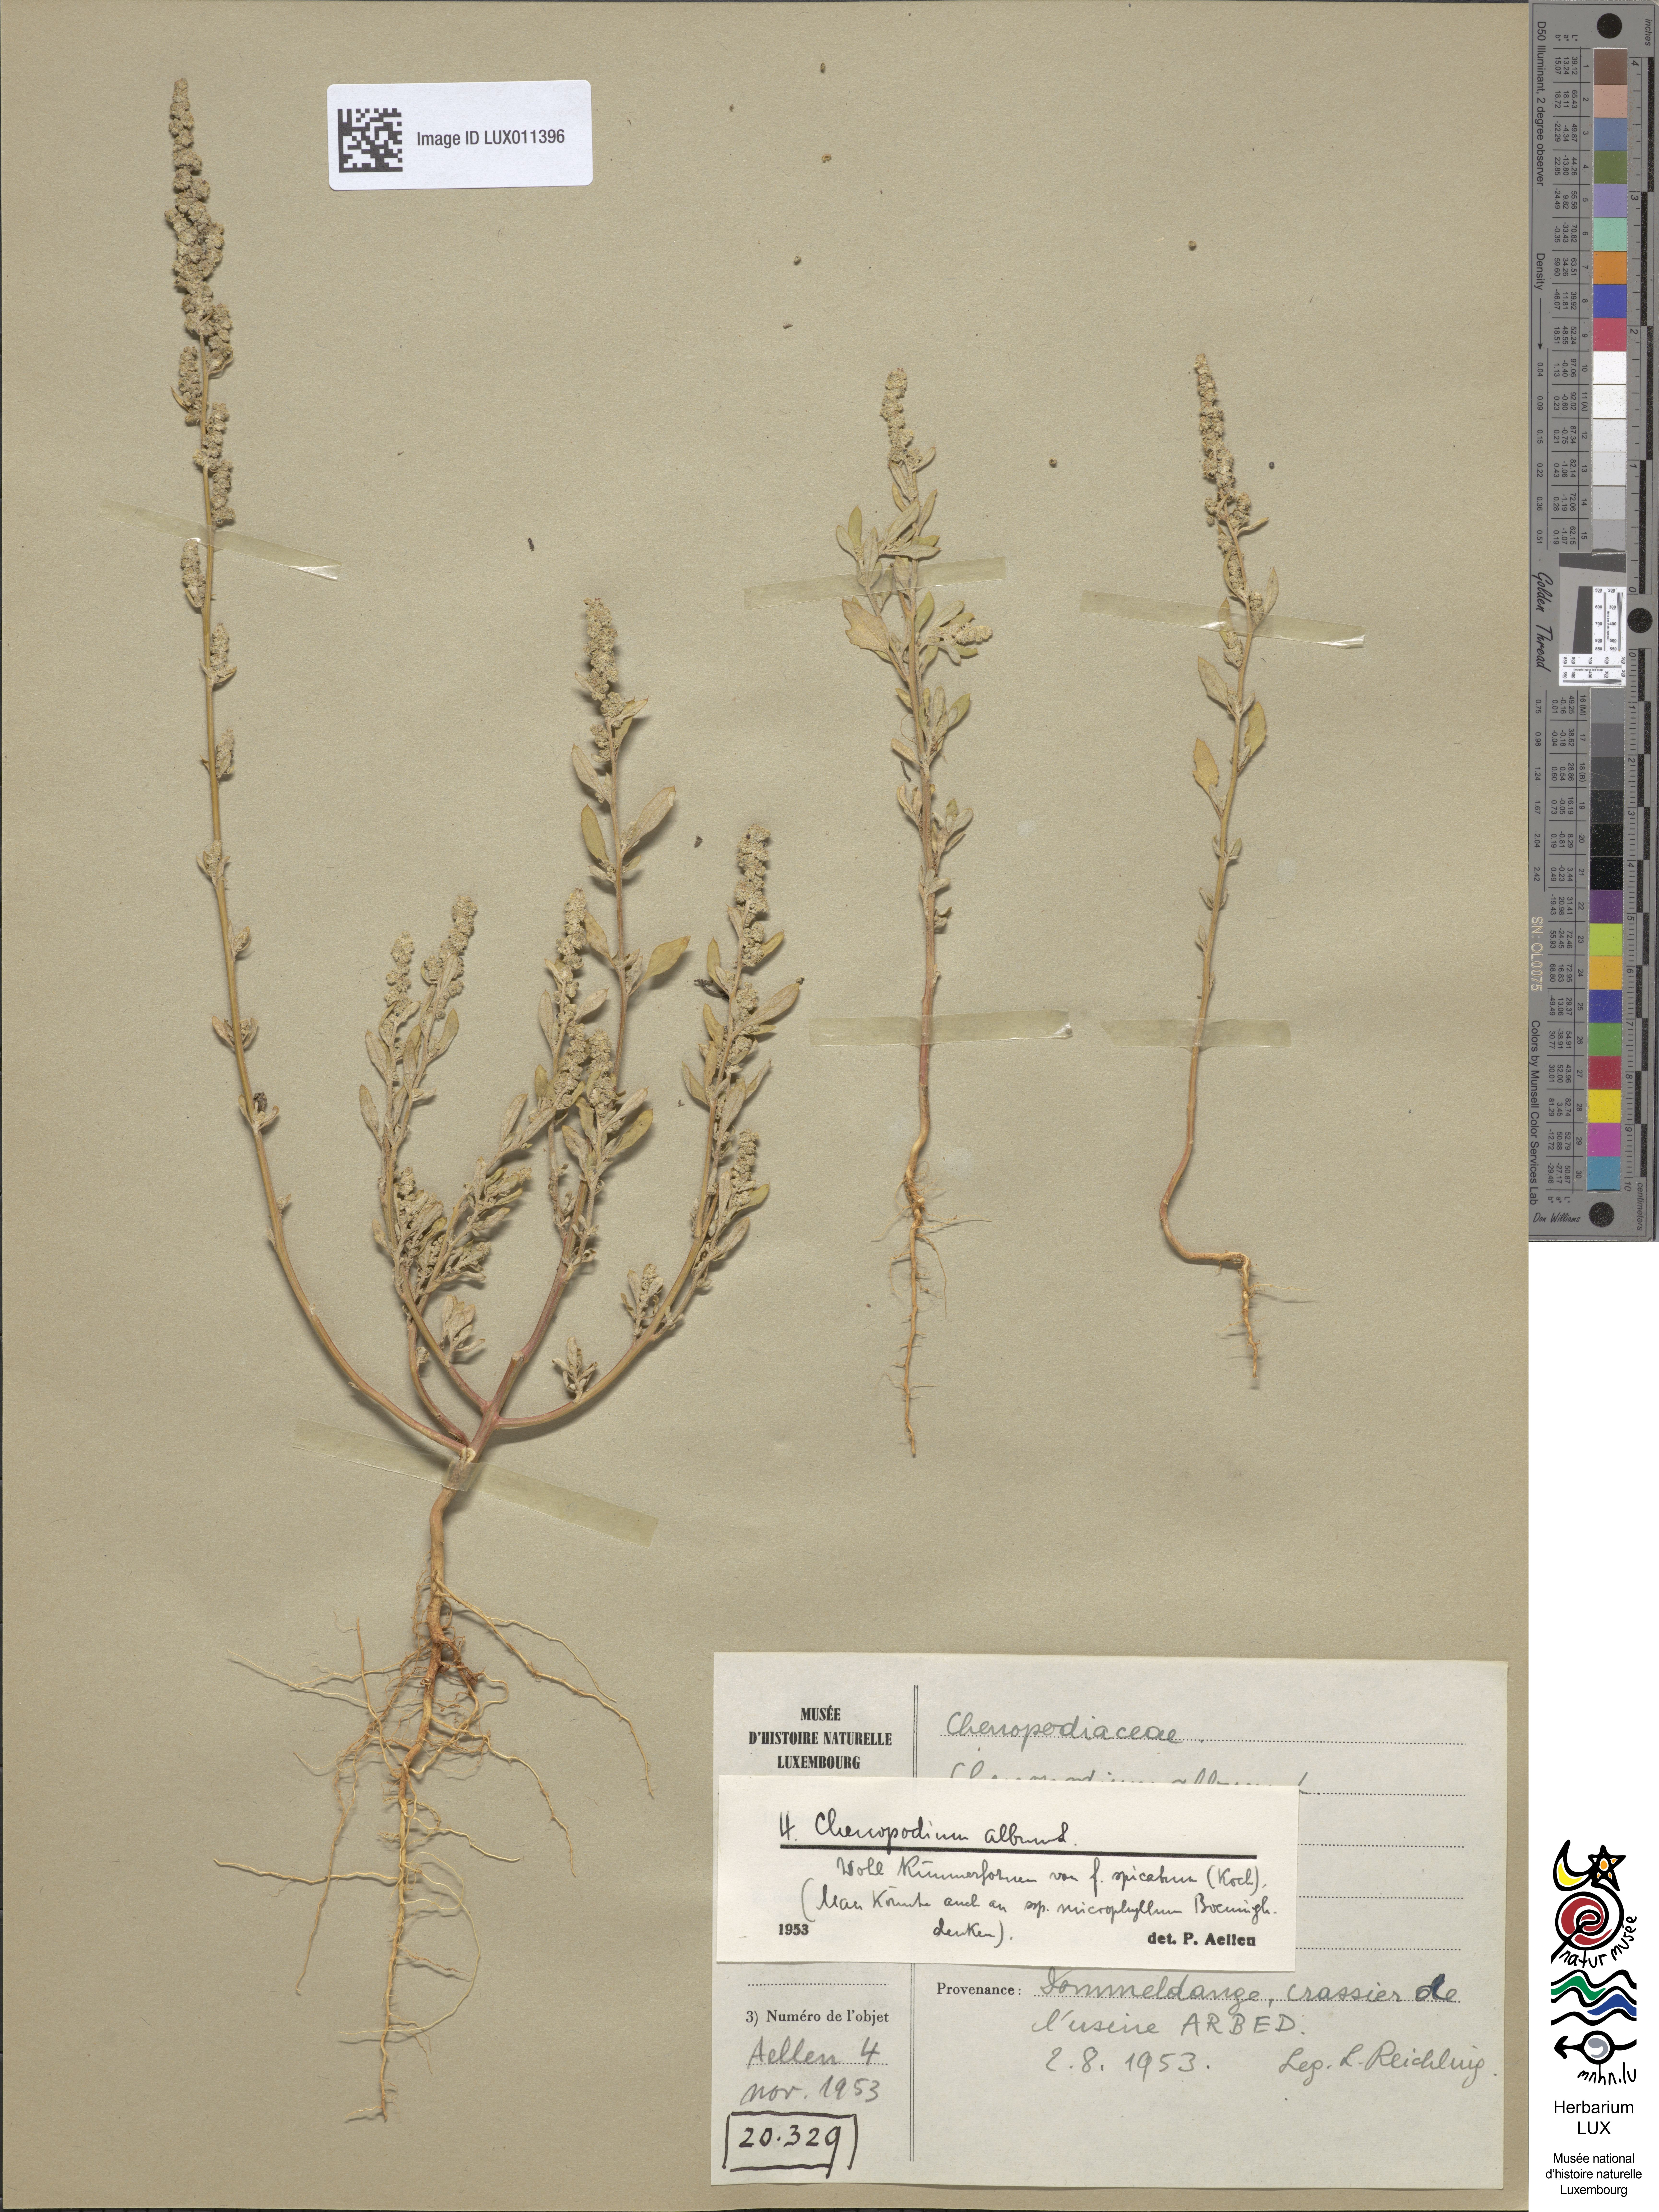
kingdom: Plantae
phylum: Tracheophyta
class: Magnoliopsida
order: Caryophyllales
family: Amaranthaceae
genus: Chenopodium
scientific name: Chenopodium album
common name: Fat-hen
